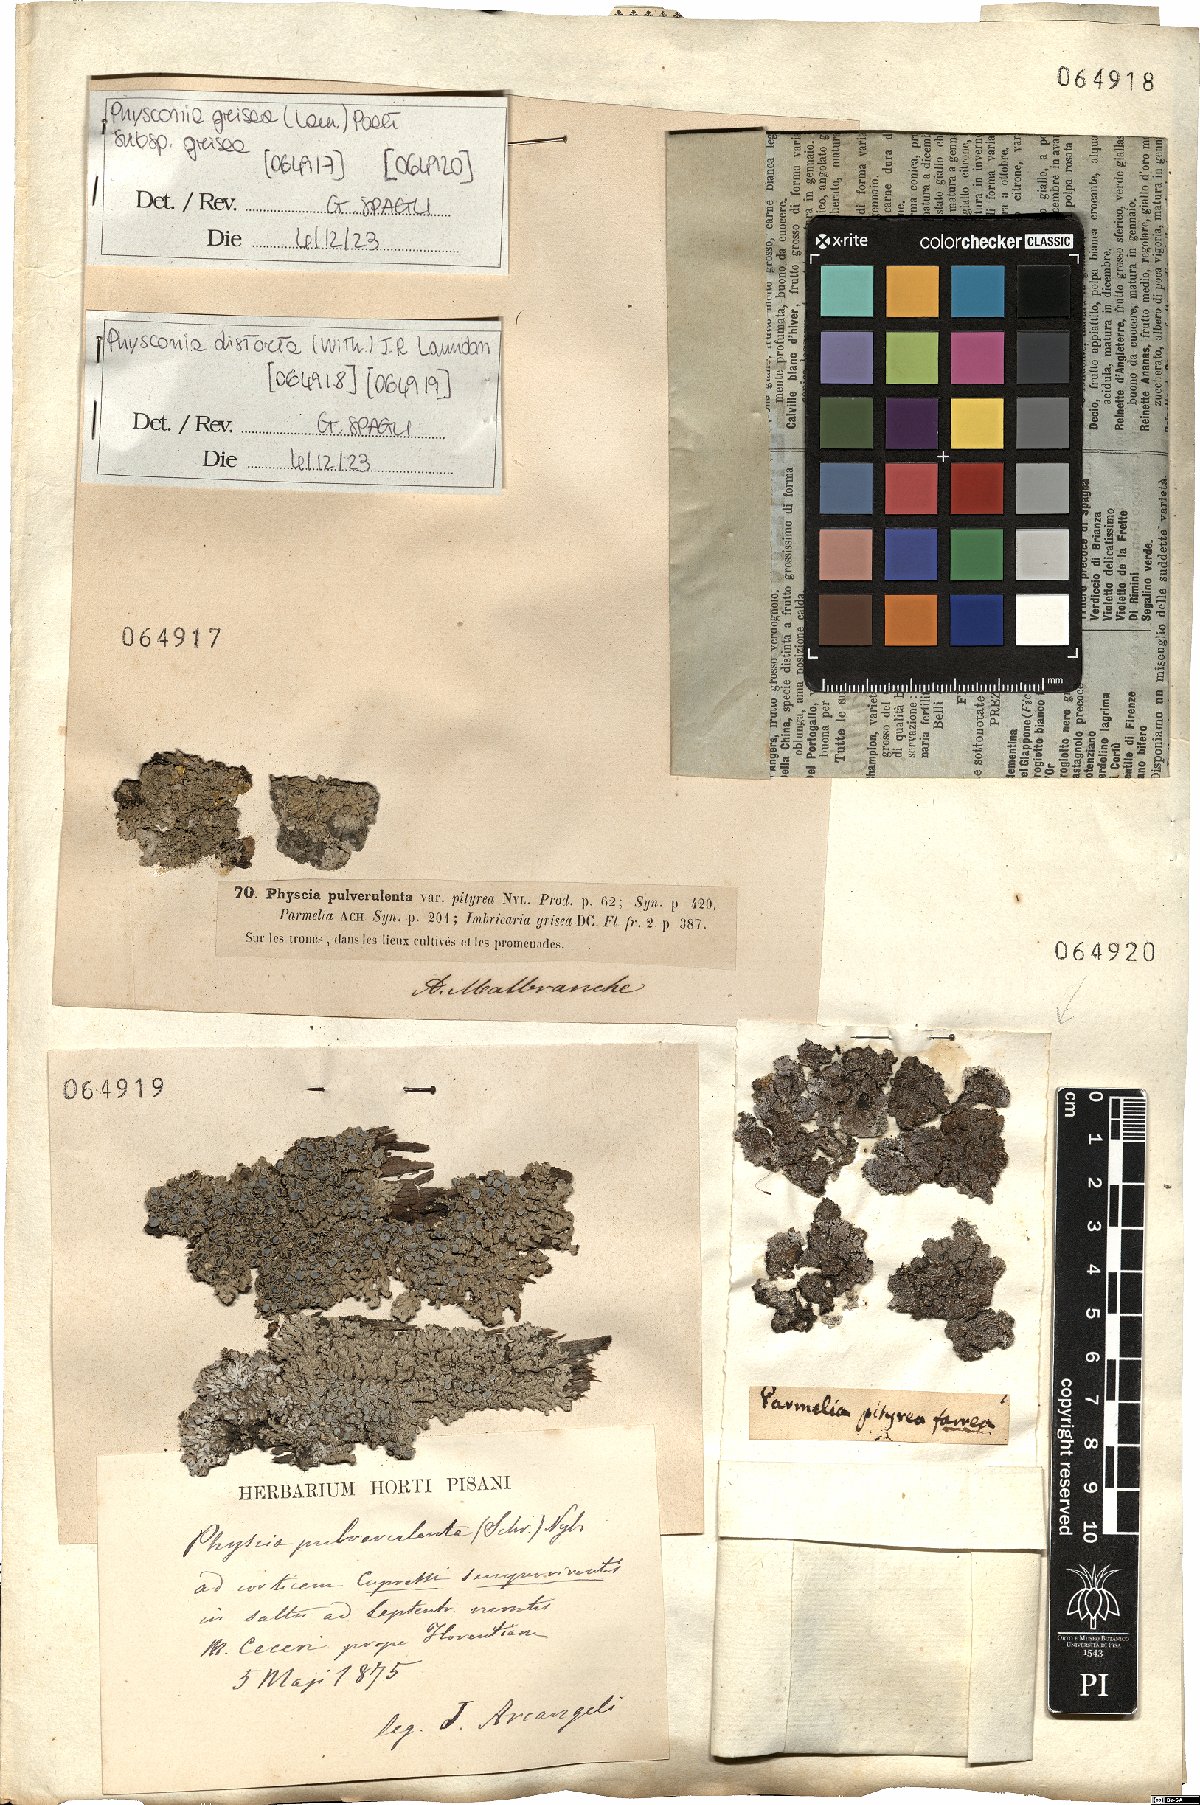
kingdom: Fungi
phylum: Ascomycota
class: Lecanoromycetes
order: Caliciales
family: Physciaceae
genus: Poeltonia
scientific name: Poeltonia grisea
